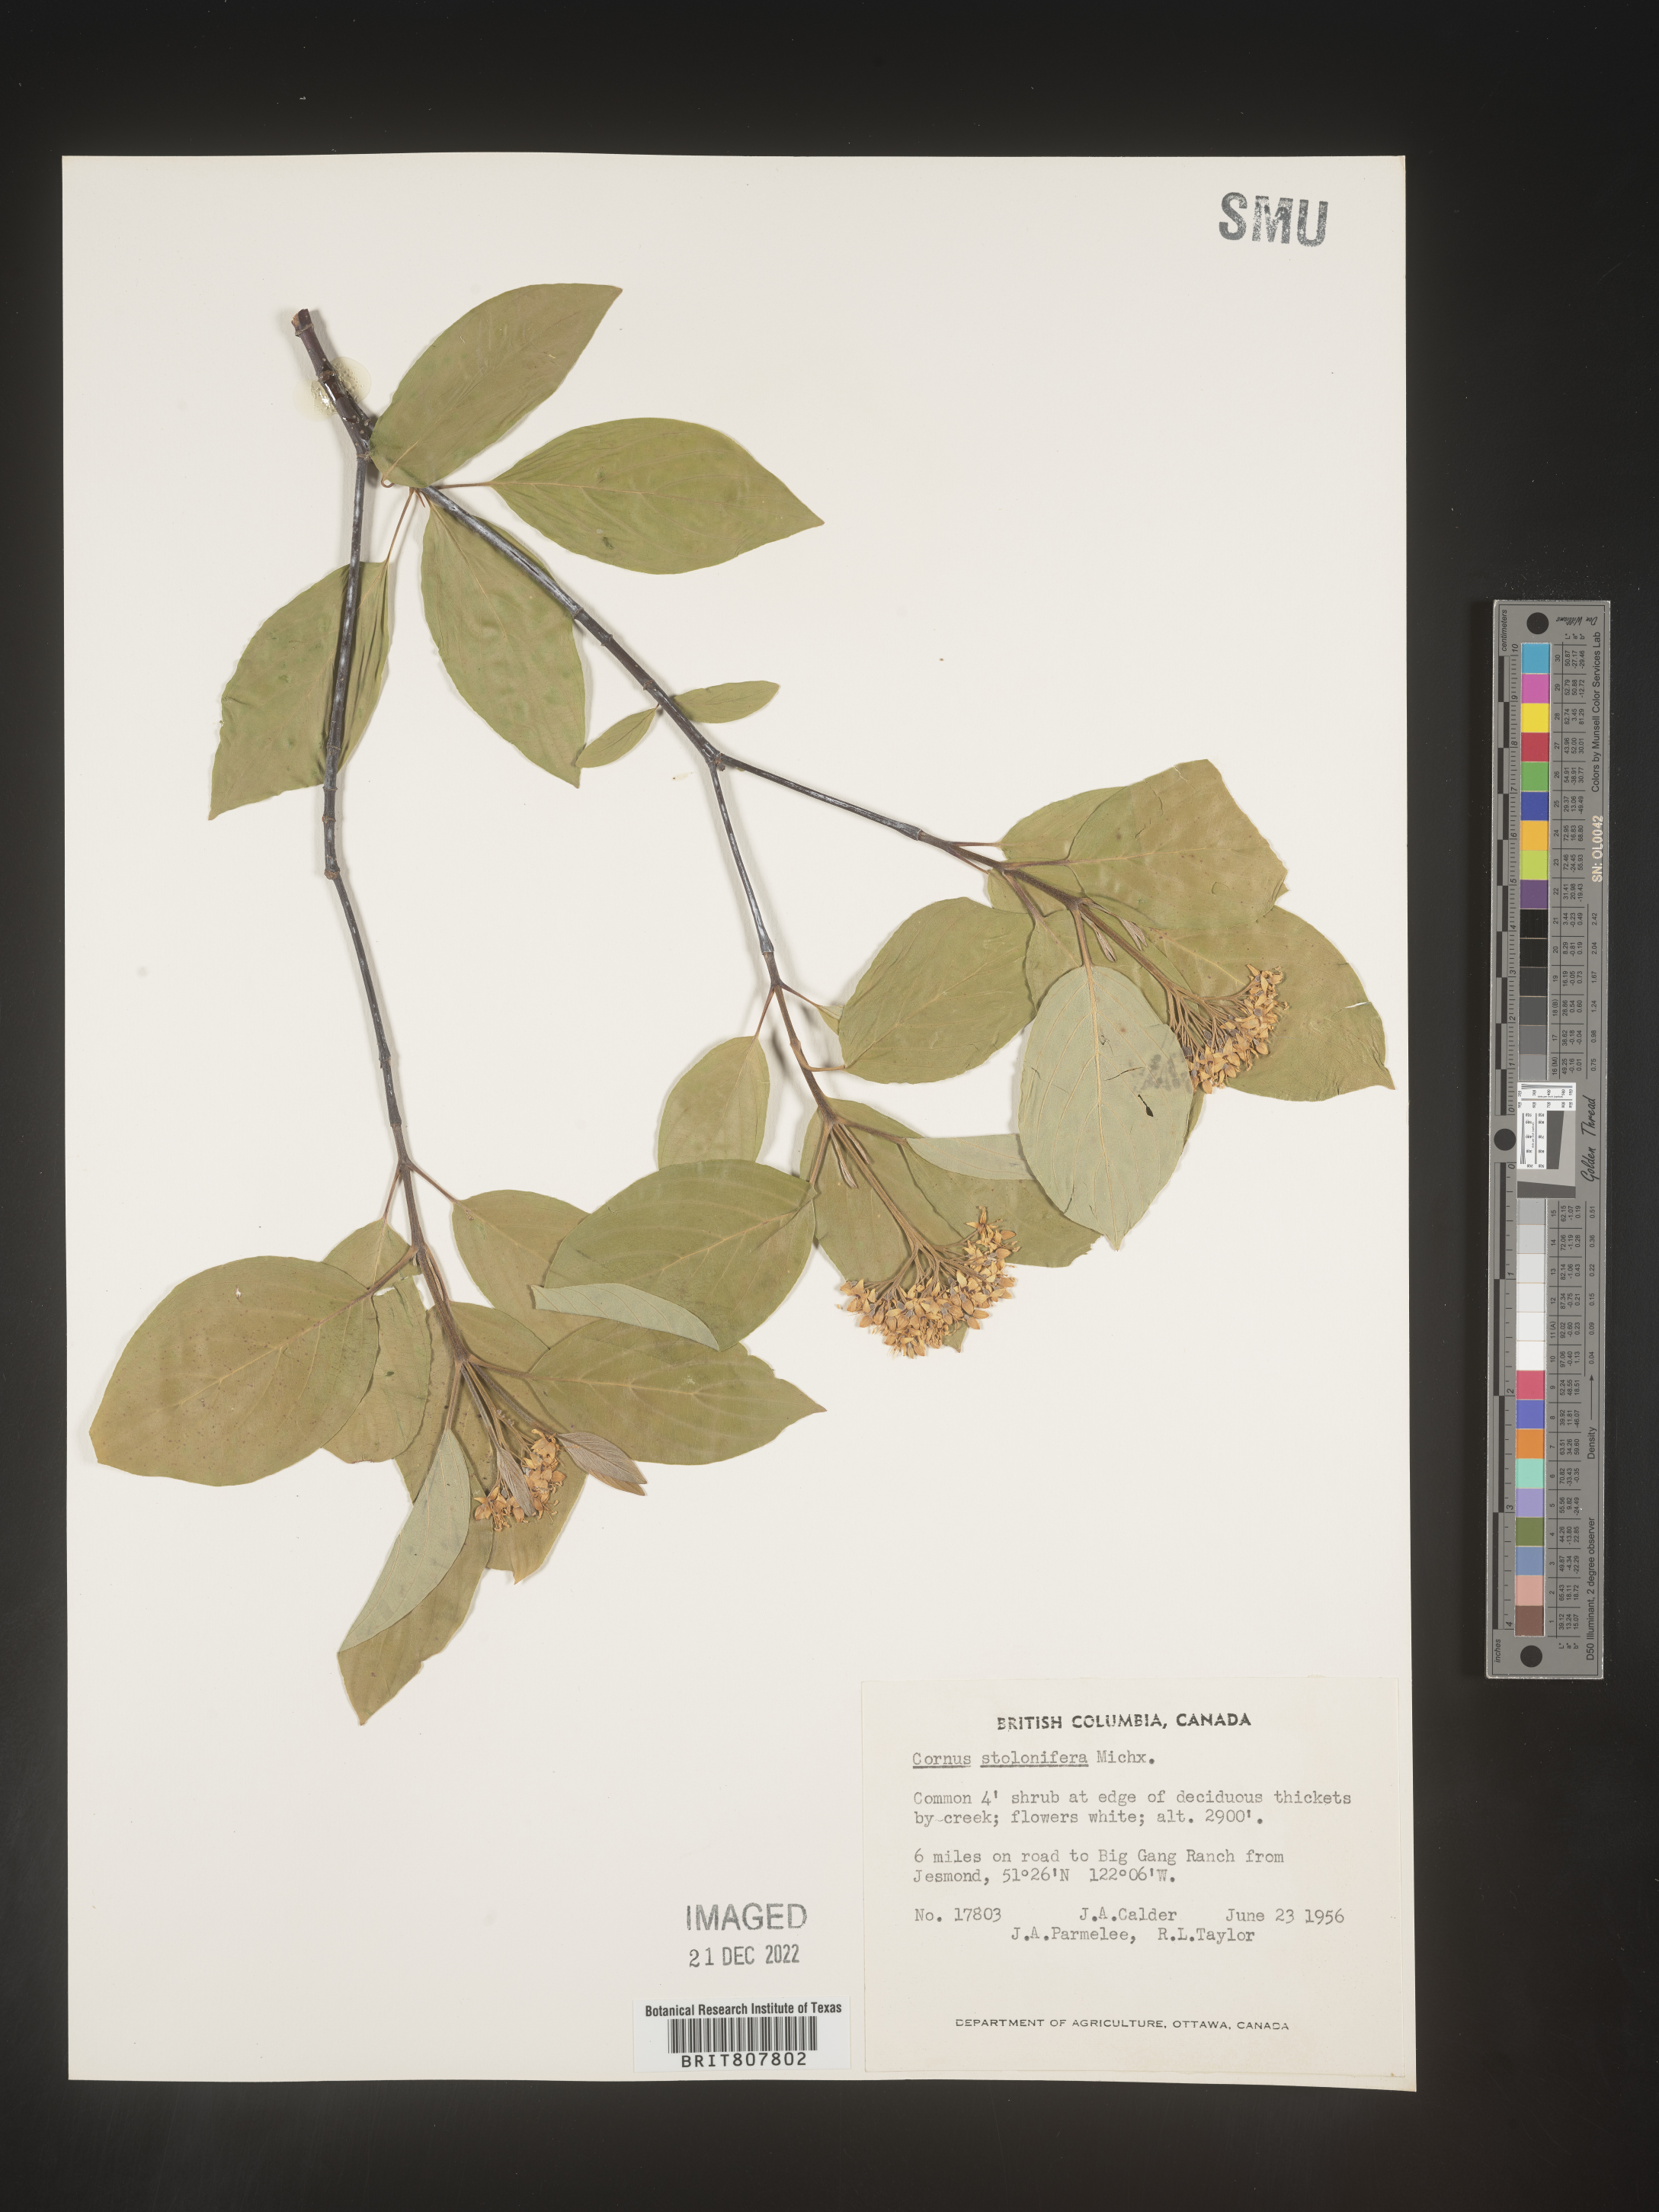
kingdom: Plantae
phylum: Tracheophyta
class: Magnoliopsida
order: Cornales
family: Cornaceae
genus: Cornus
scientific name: Cornus sericea
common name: Red-osier dogwood
